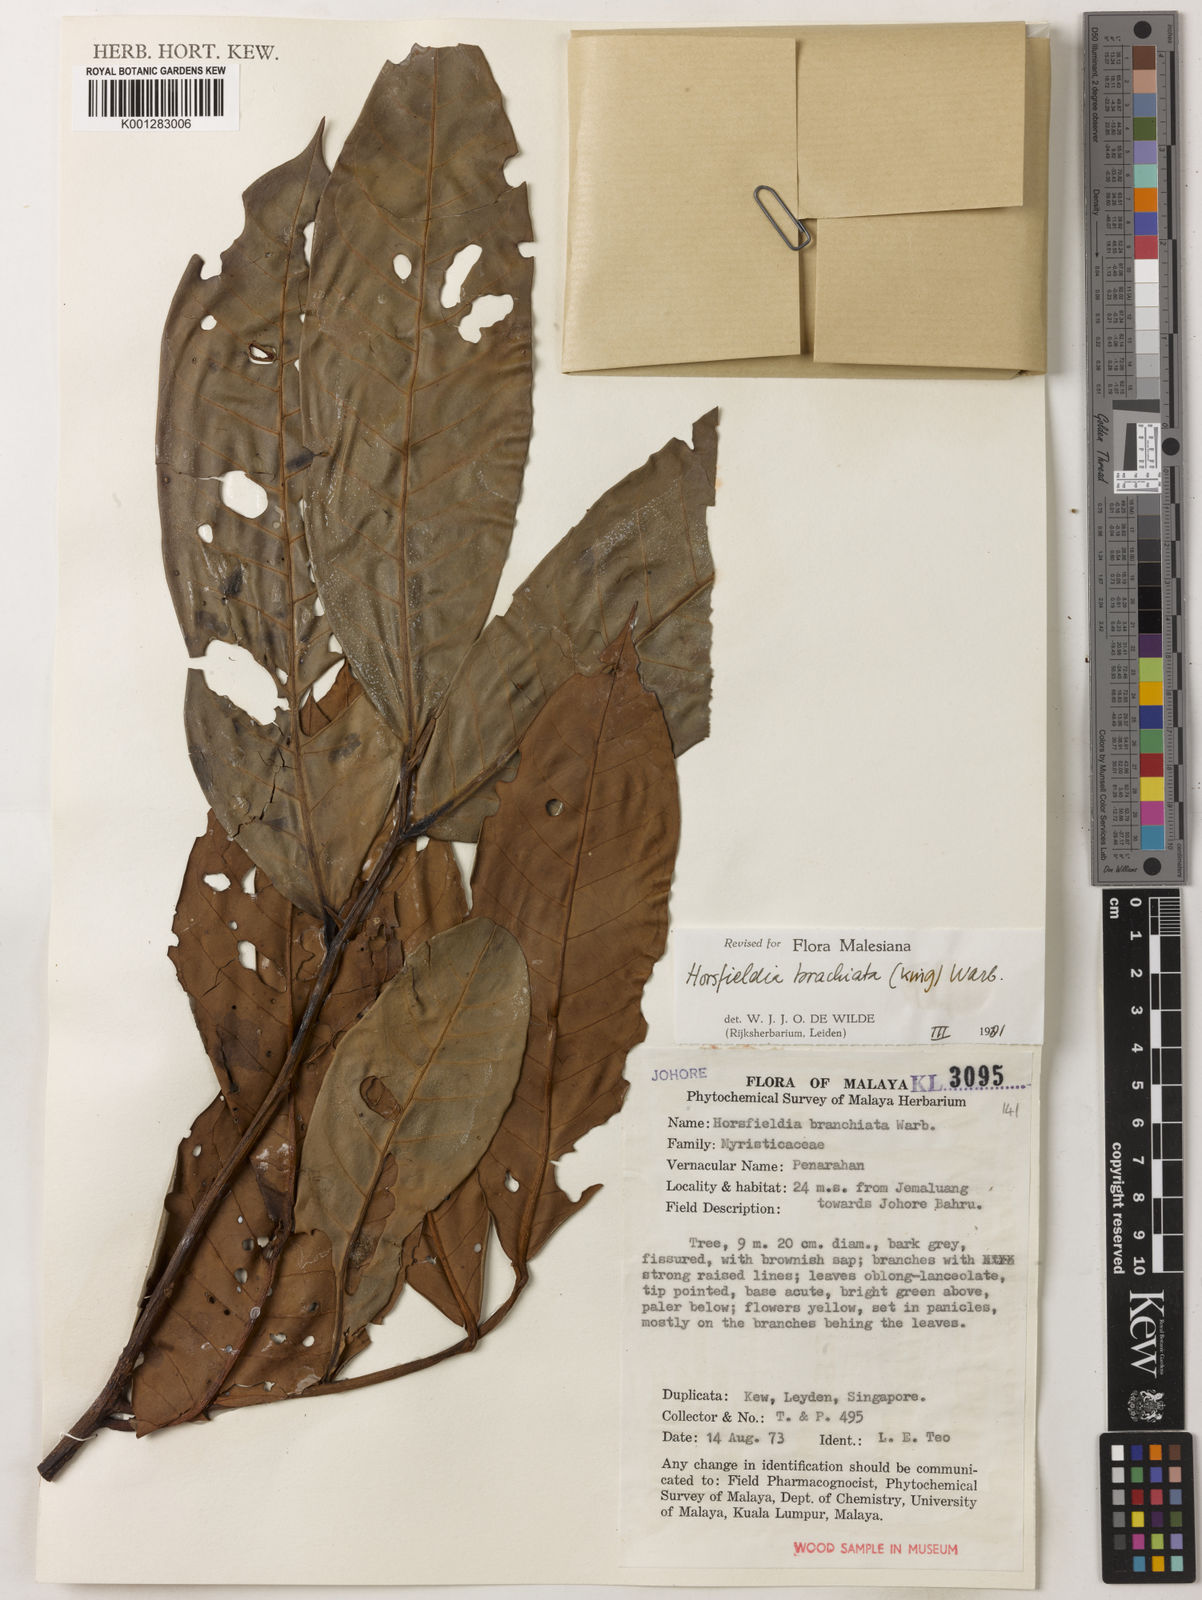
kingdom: Plantae
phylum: Tracheophyta
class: Magnoliopsida
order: Magnoliales
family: Myristicaceae
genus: Horsfieldia
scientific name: Horsfieldia brachiata
